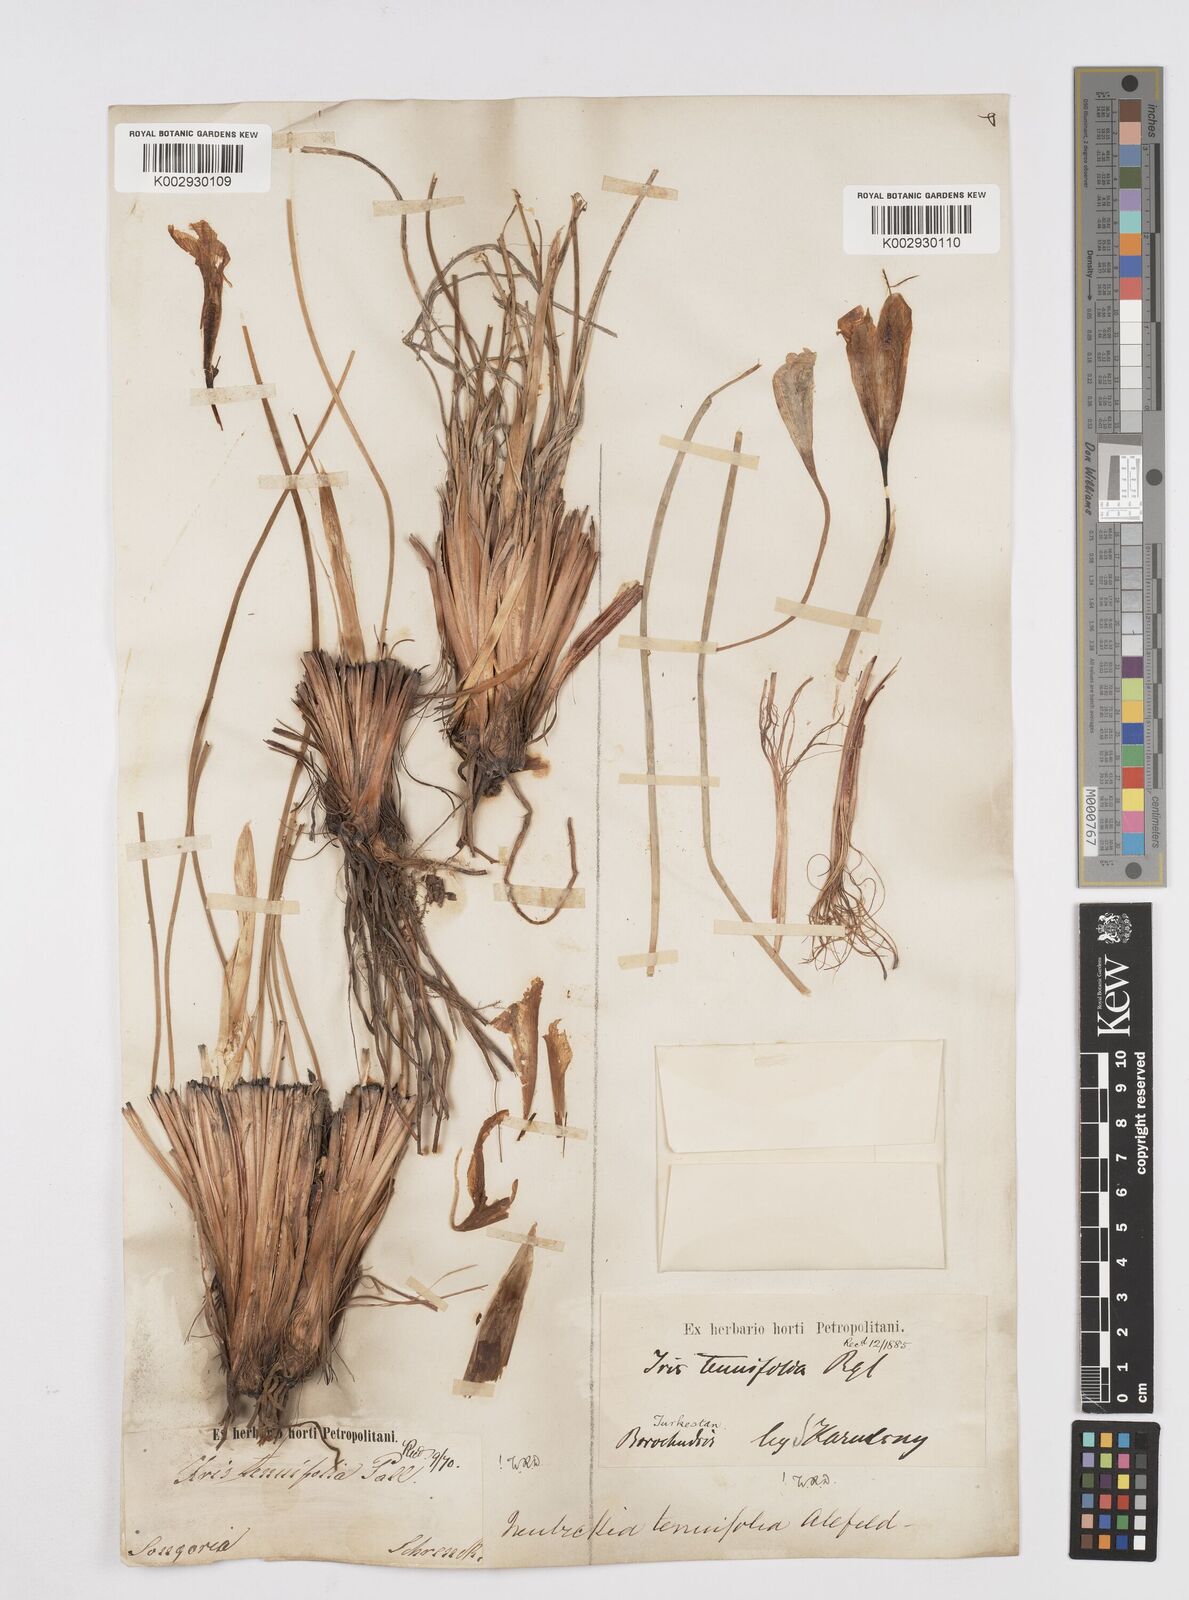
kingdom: Plantae
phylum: Tracheophyta
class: Liliopsida
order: Asparagales
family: Iridaceae
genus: Iris
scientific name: Iris tenuifolia
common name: Slender-leaf iris
